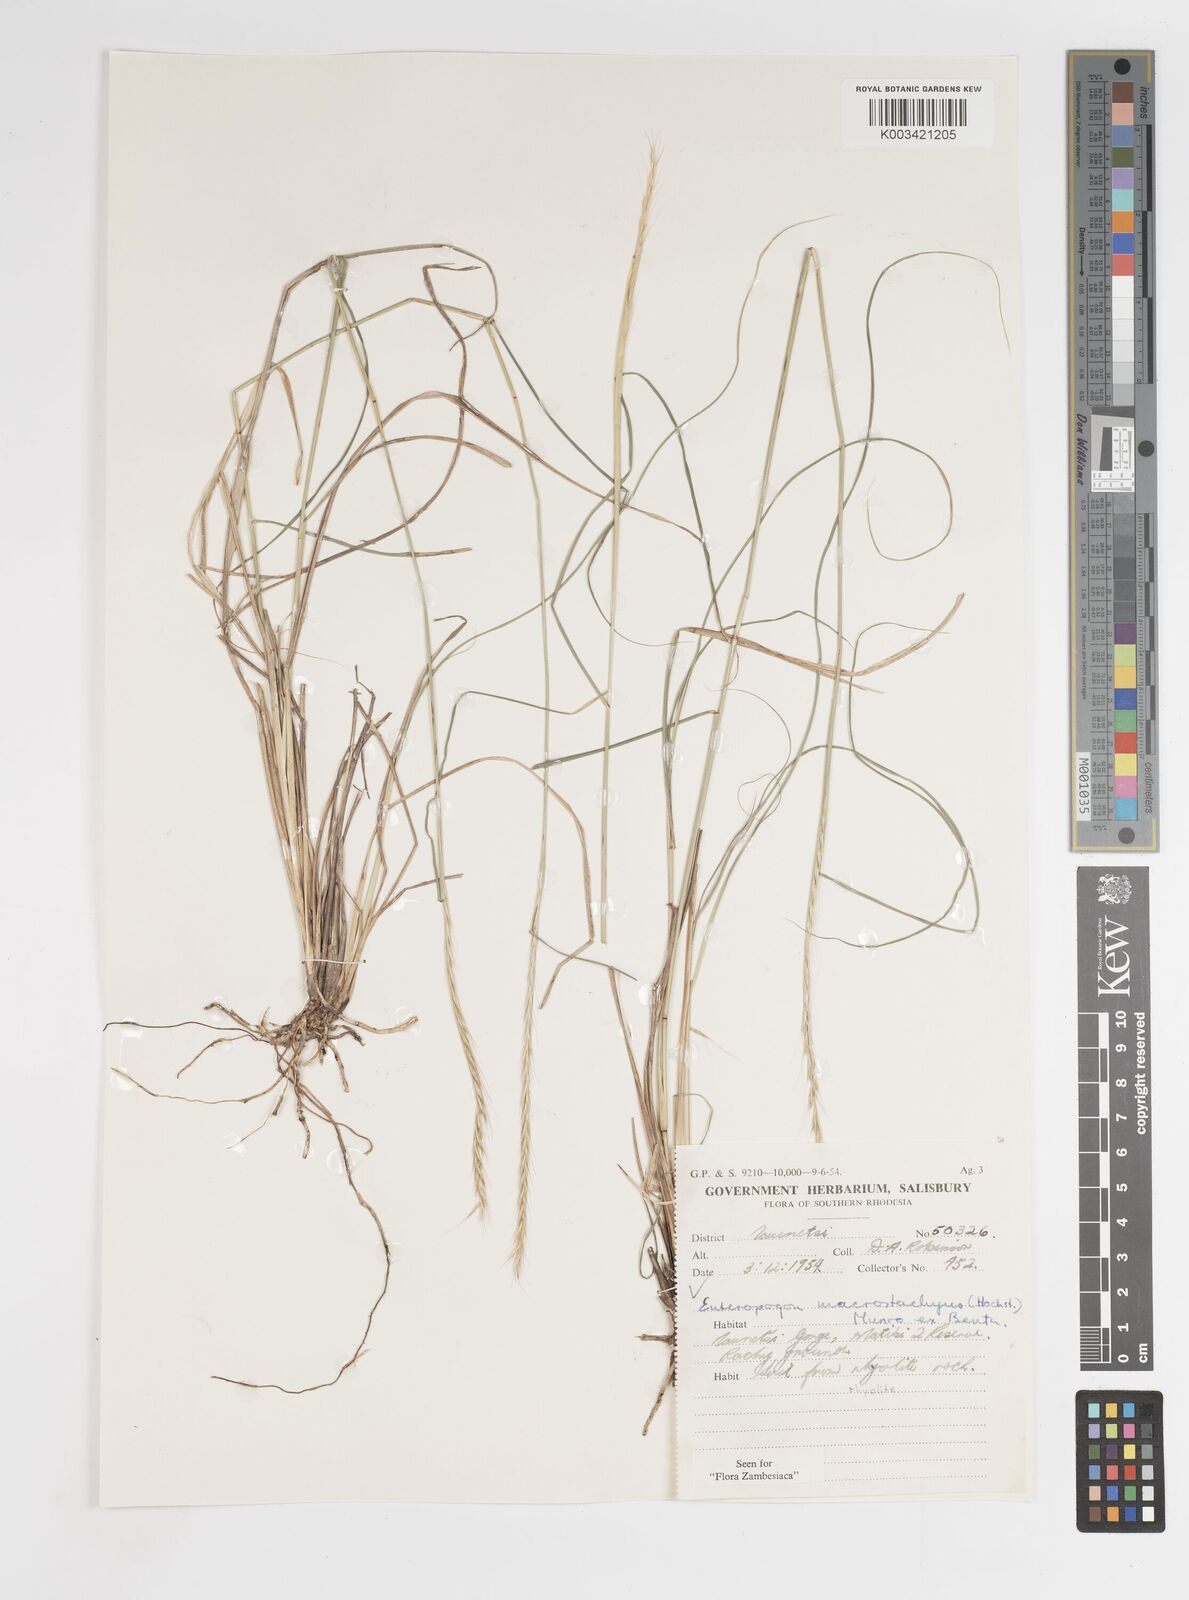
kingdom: Plantae
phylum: Tracheophyta
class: Liliopsida
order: Poales
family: Poaceae
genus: Enteropogon
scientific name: Enteropogon macrostachyus
